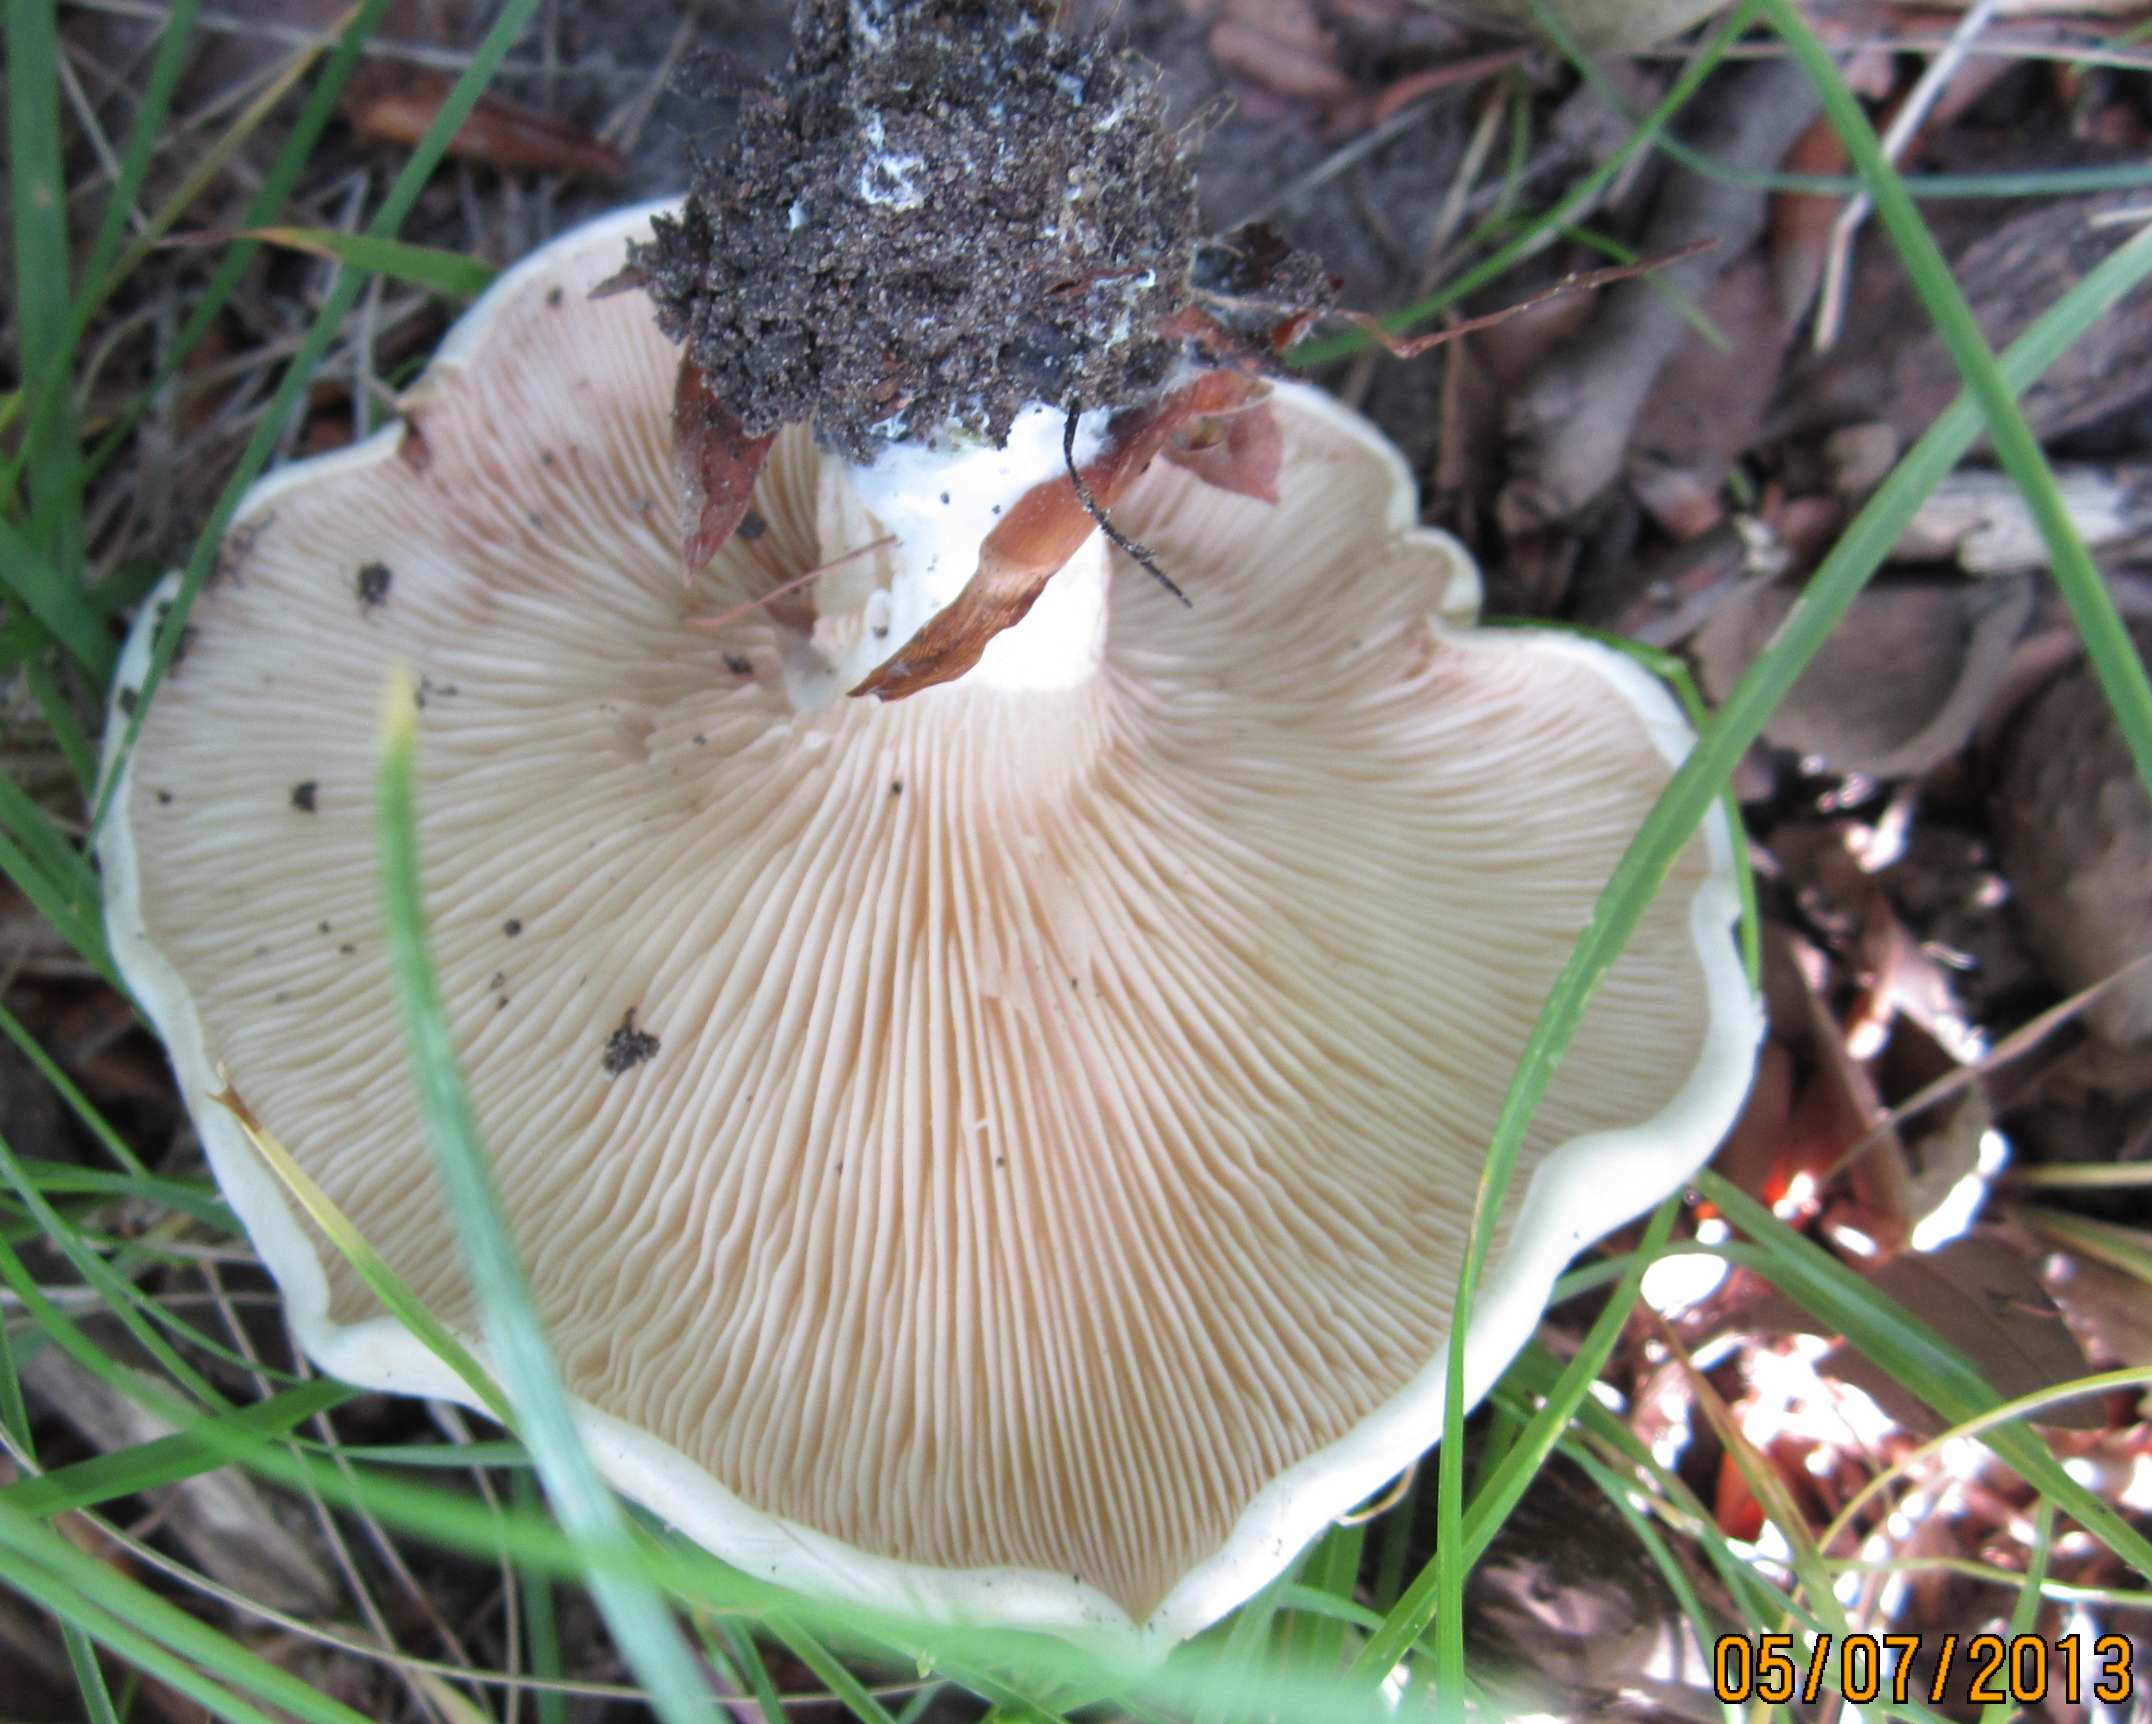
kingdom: Fungi
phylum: Basidiomycota
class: Agaricomycetes
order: Agaricales
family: Entolomataceae
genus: Clitopilus
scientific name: Clitopilus prunulus
